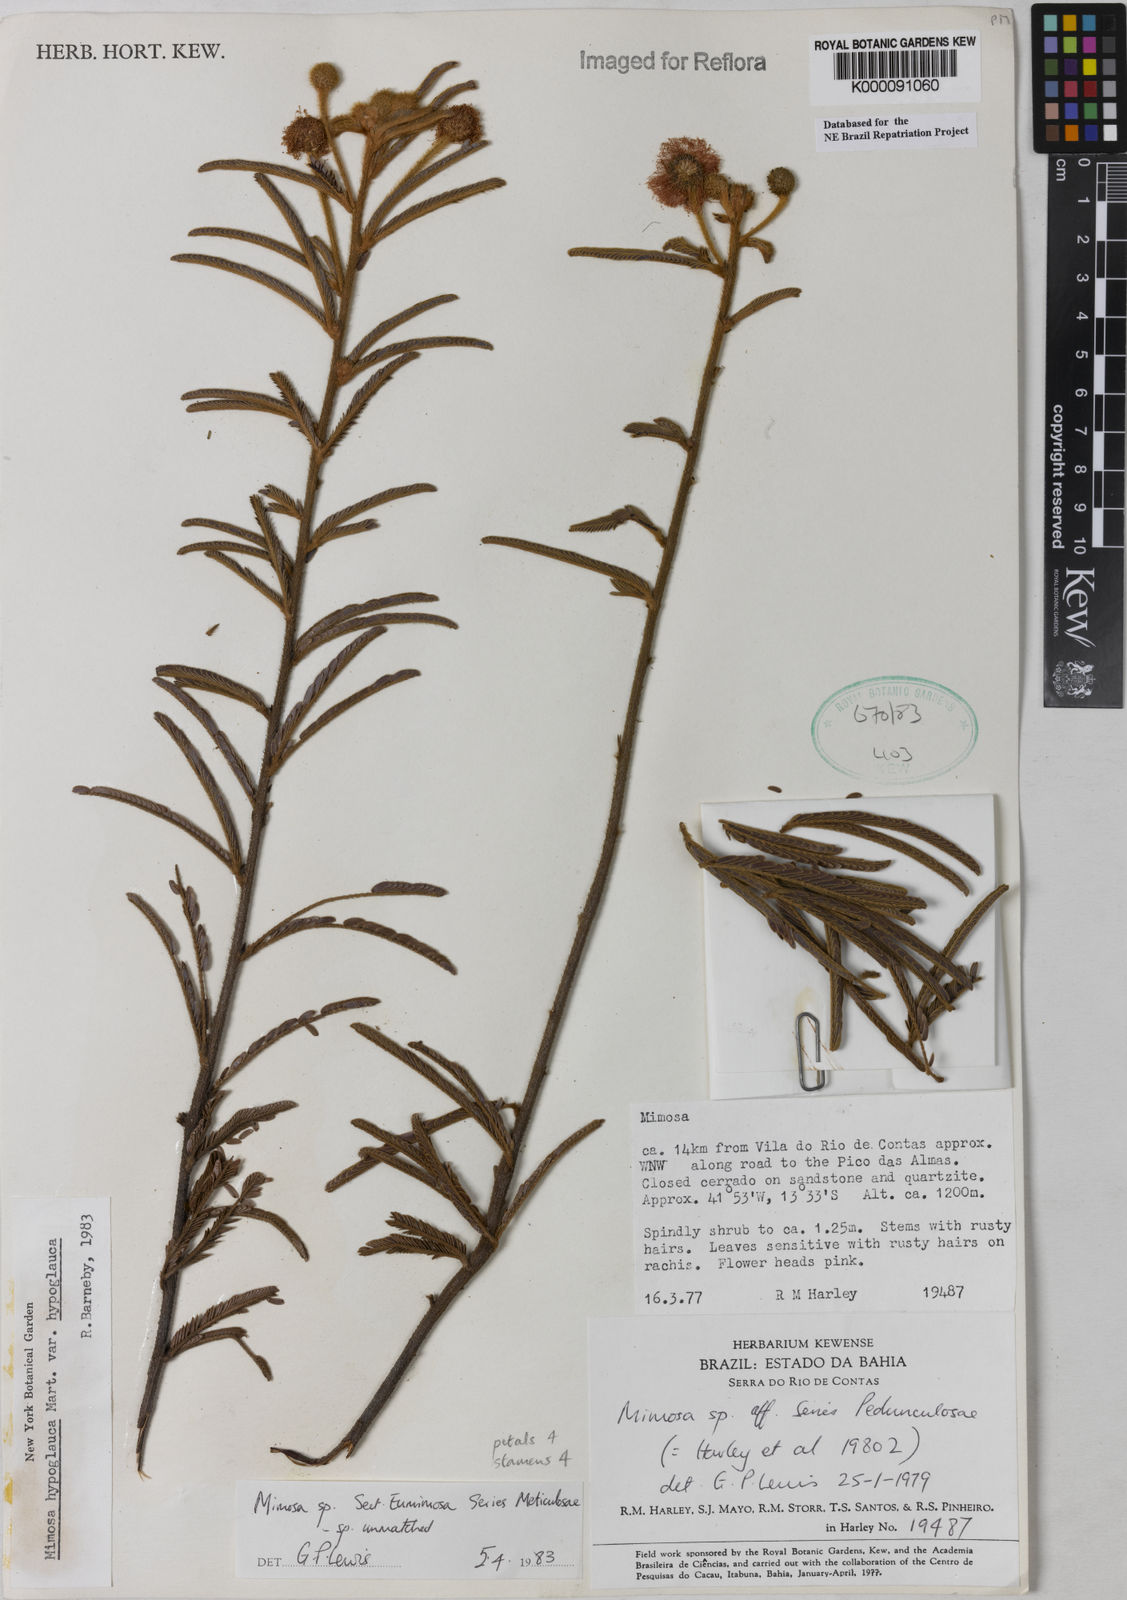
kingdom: Plantae
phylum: Tracheophyta
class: Magnoliopsida
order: Fabales
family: Fabaceae
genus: Mimosa
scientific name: Mimosa hypoglauca
